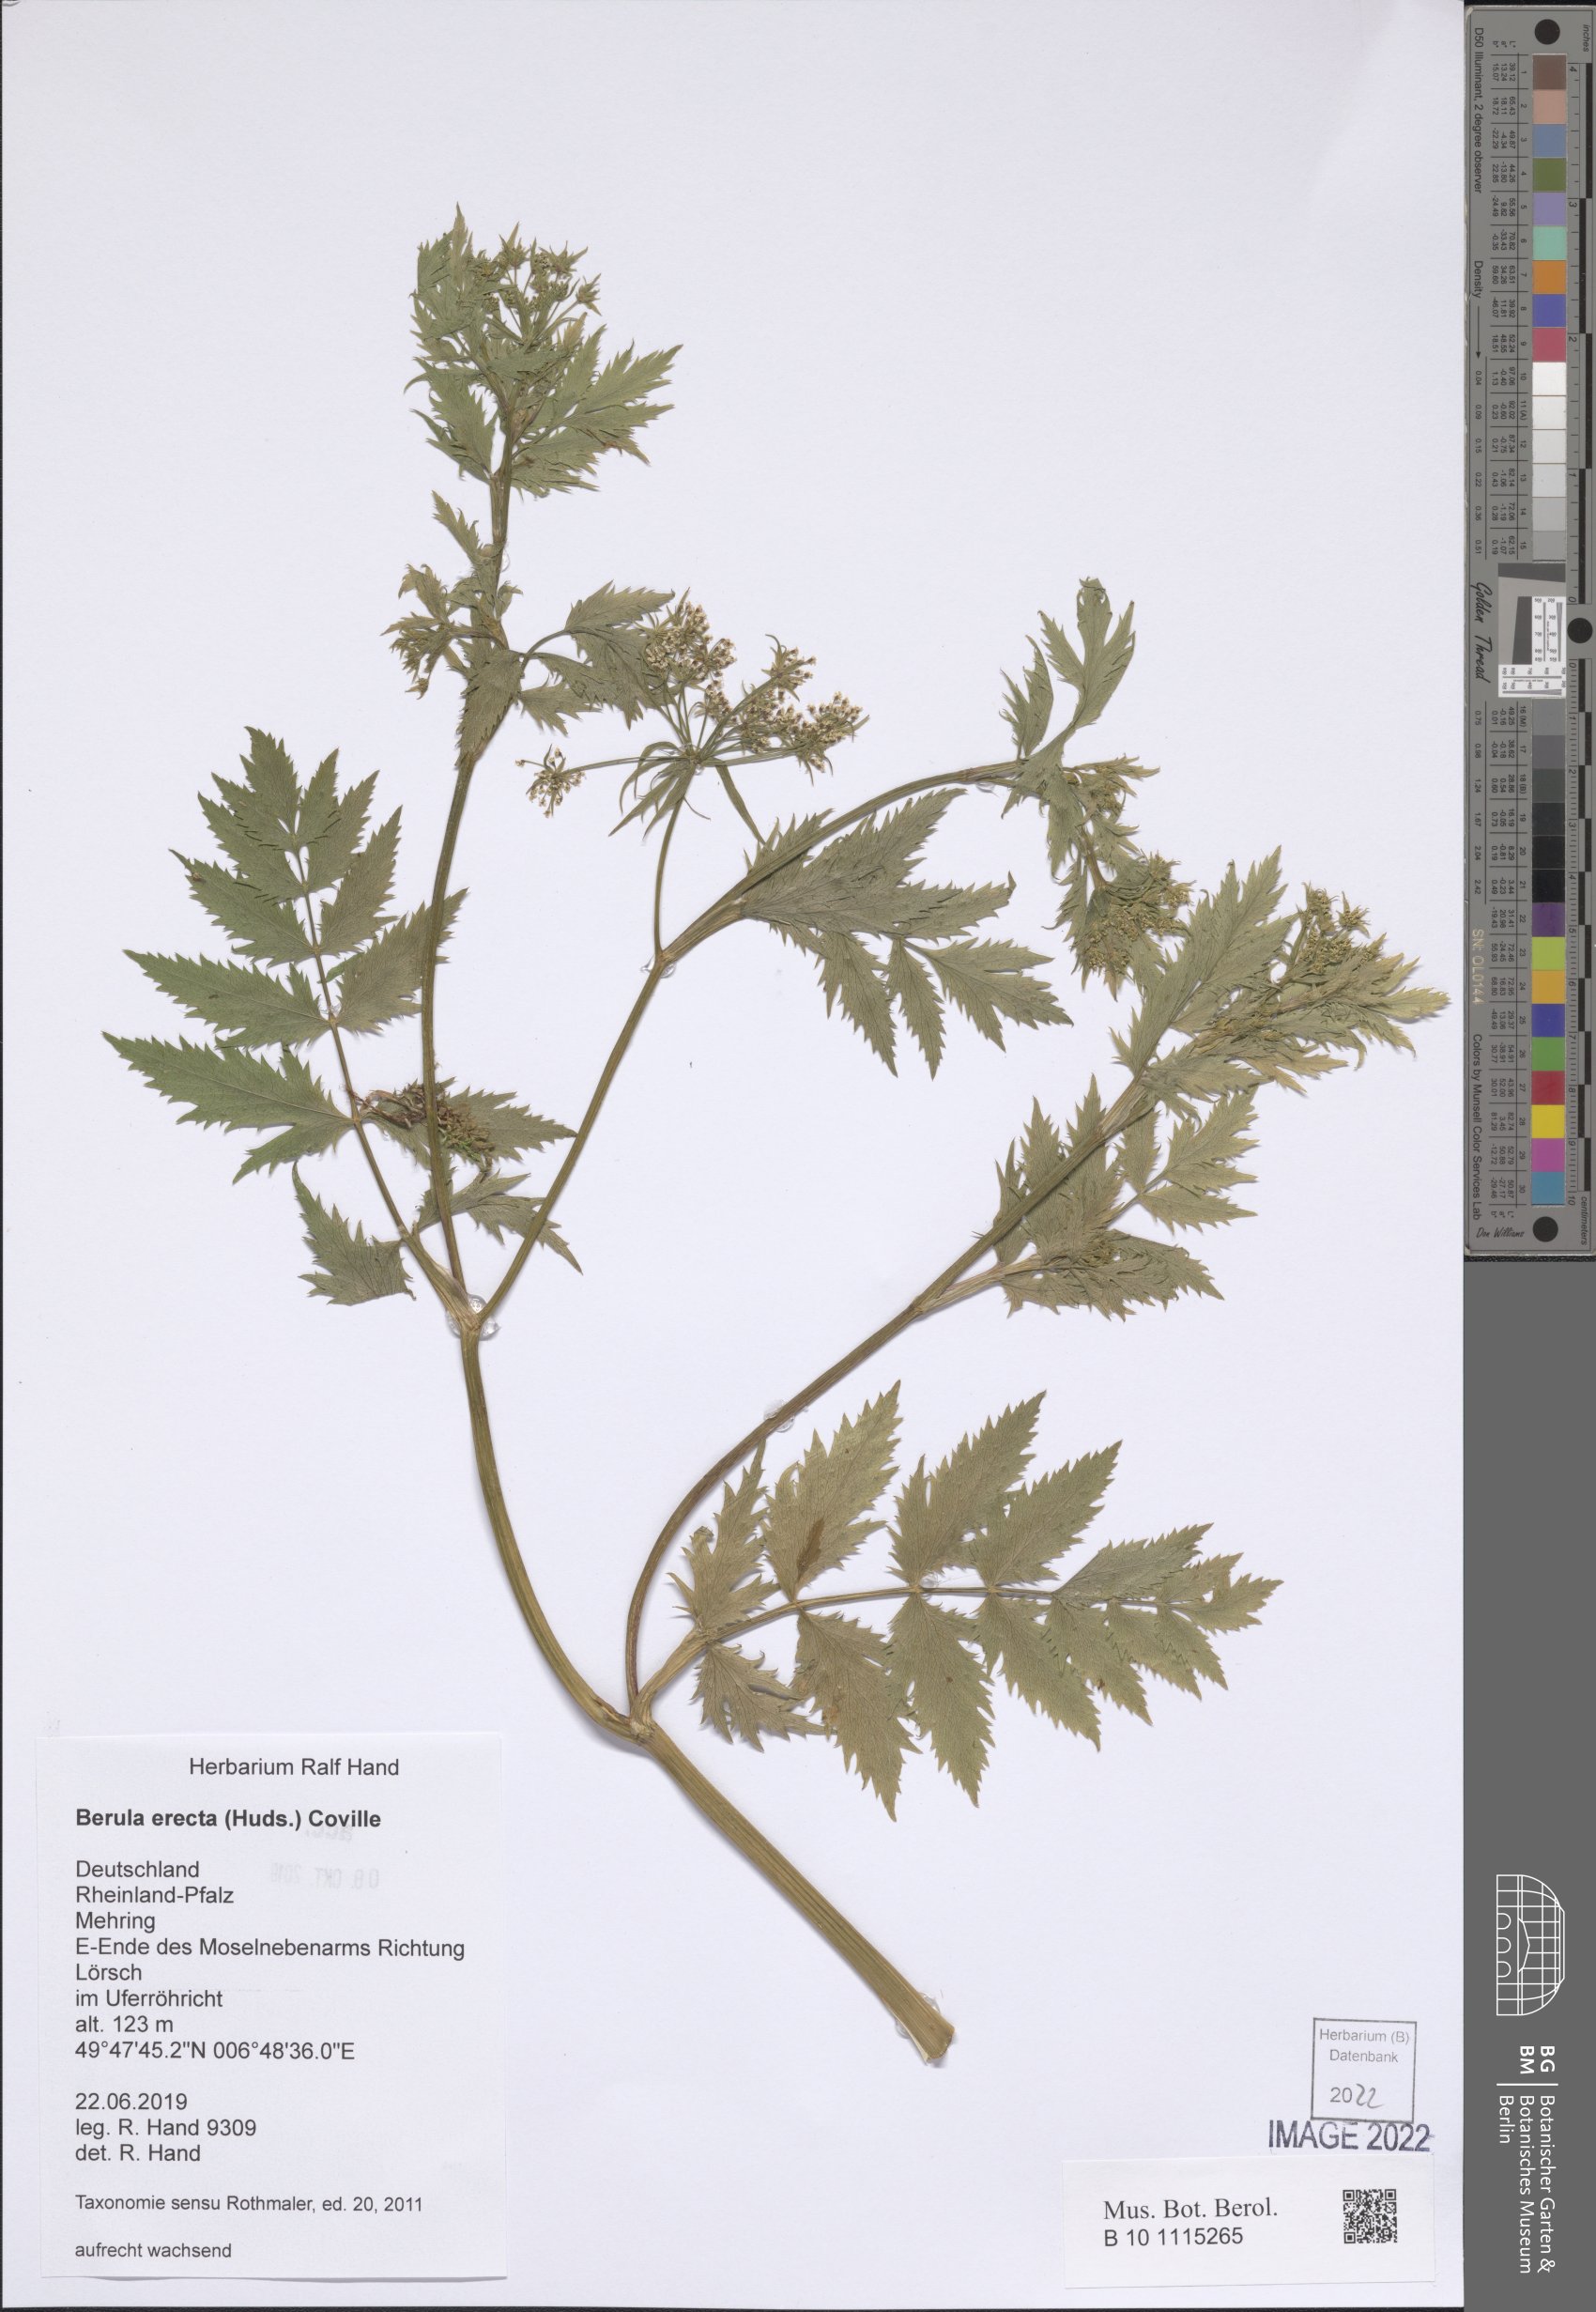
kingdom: Plantae
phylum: Tracheophyta
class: Magnoliopsida
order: Apiales
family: Apiaceae
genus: Berula
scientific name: Berula erecta
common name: Lesser water-parsnip
